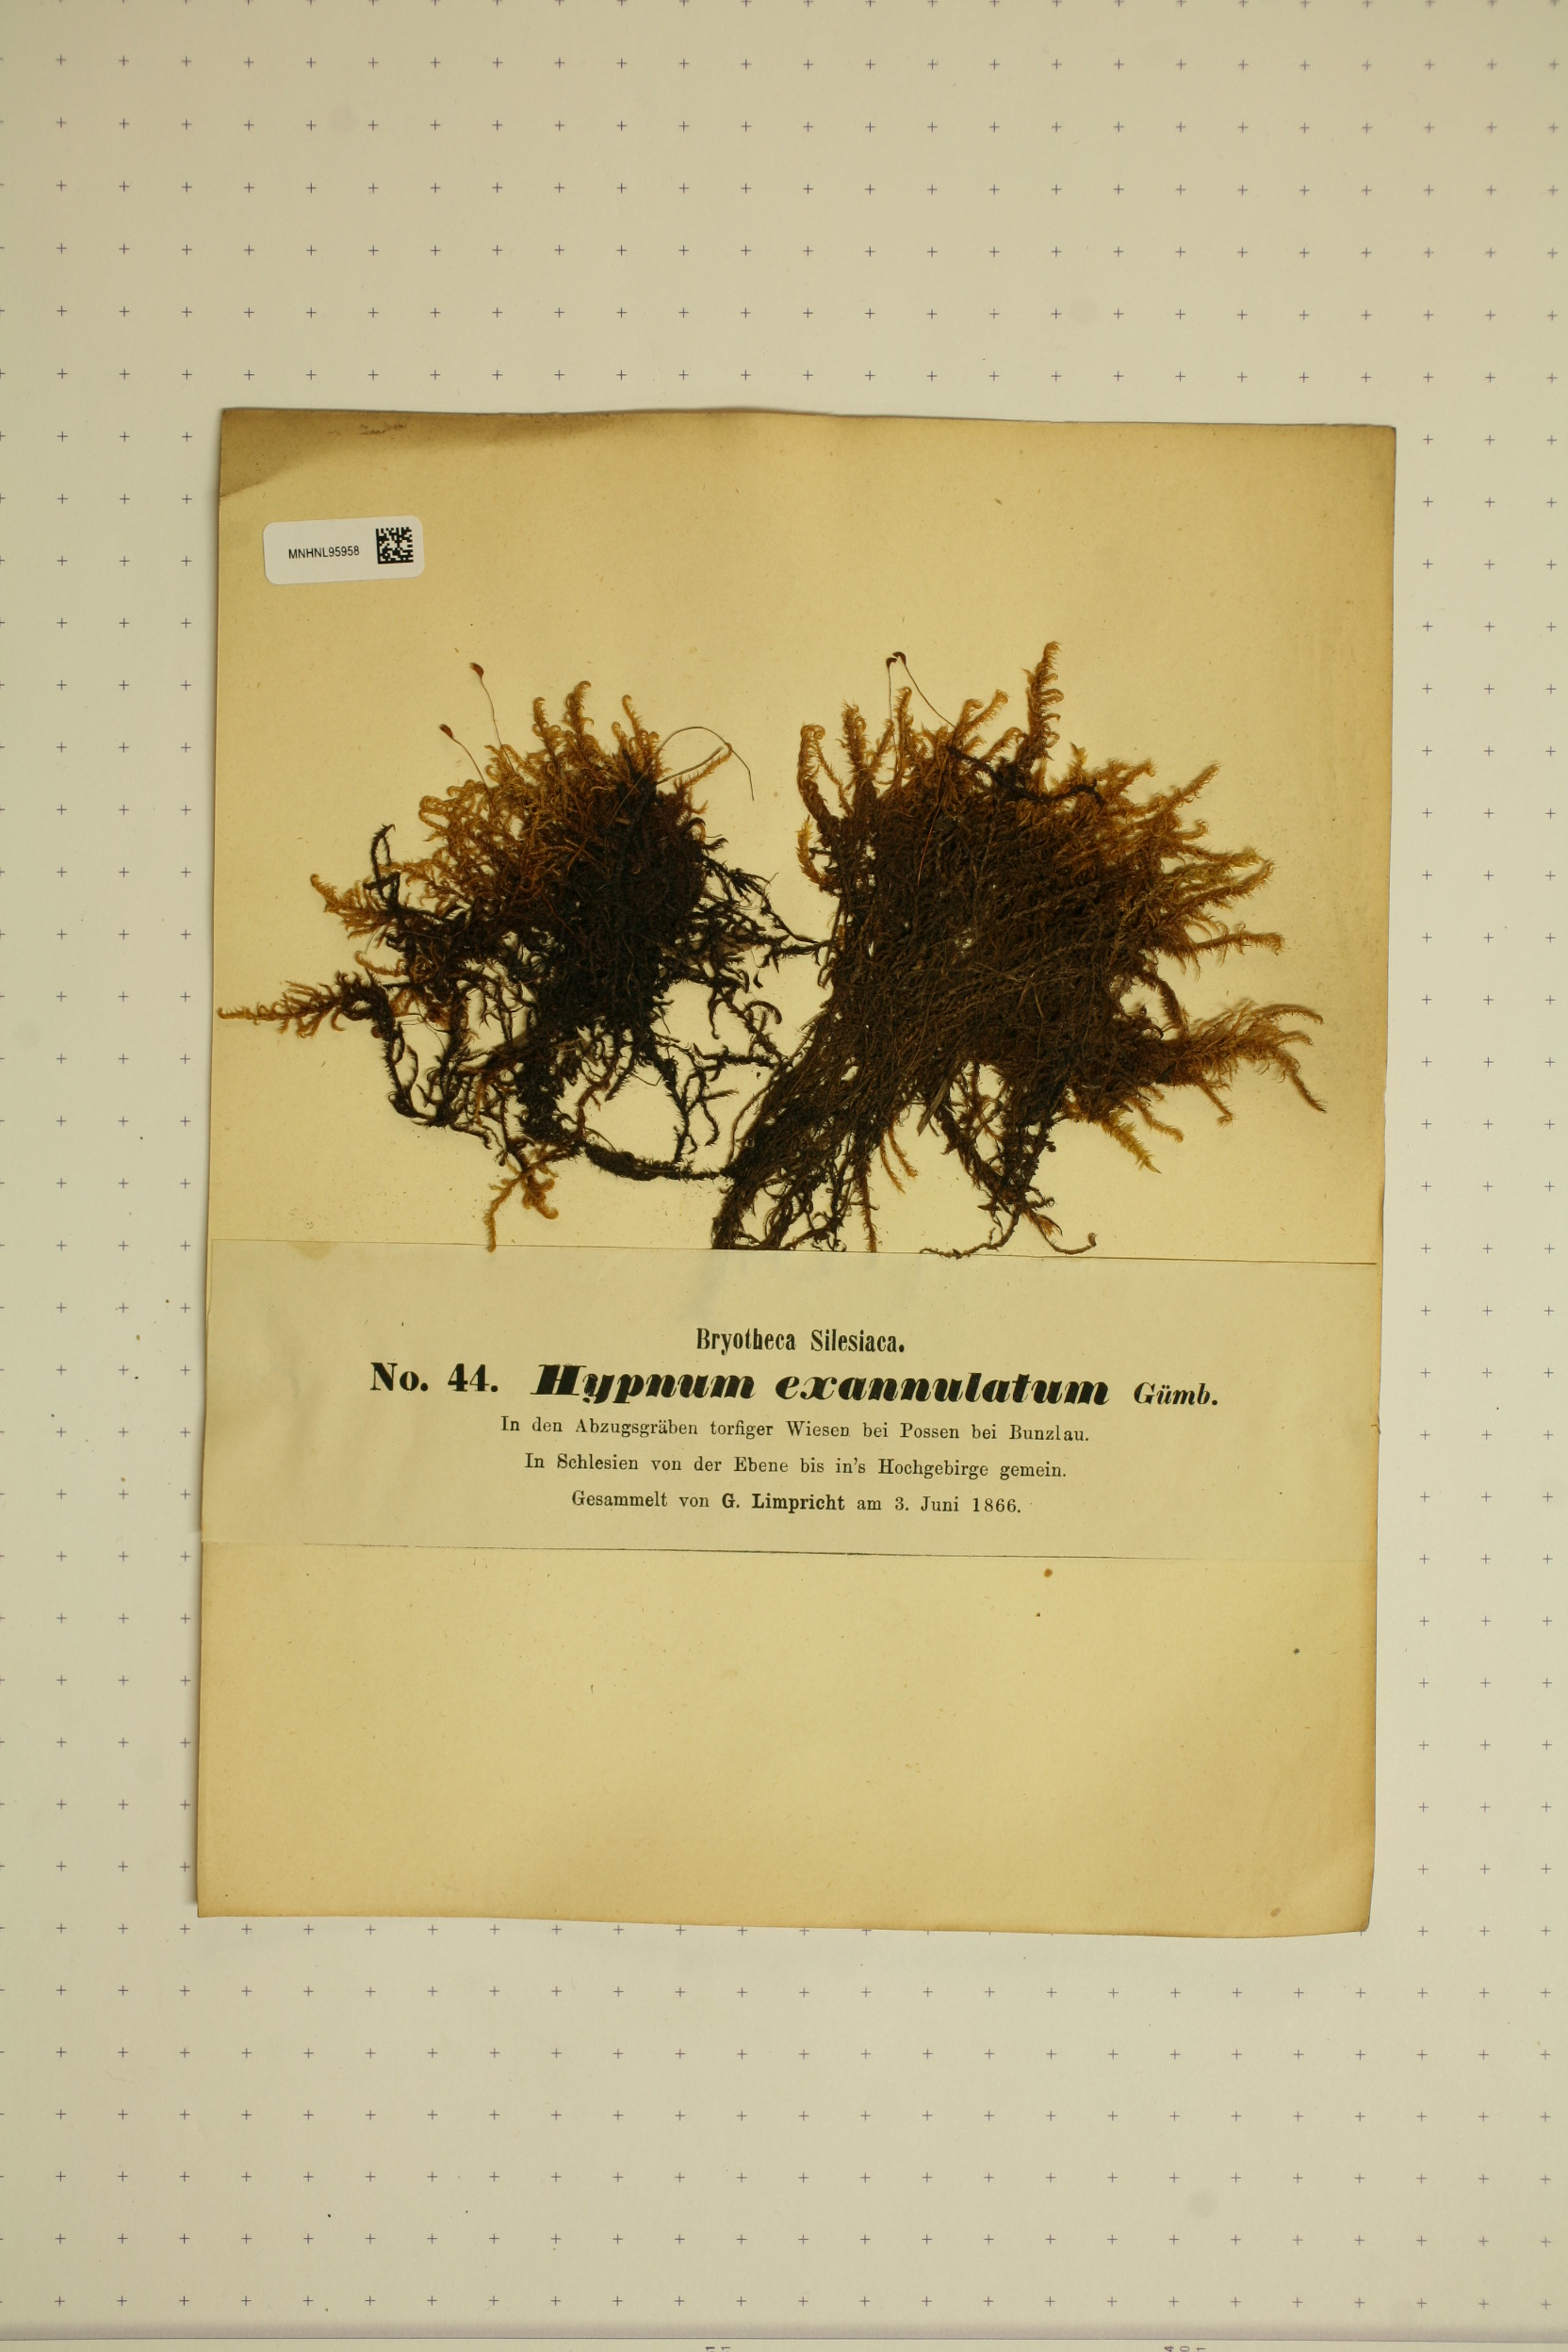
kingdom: Plantae
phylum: Bryophyta
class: Bryopsida
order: Hypnales
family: Calliergonaceae
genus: Sarmentypnum
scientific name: Sarmentypnum exannulatum
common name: Ringless spoon moss
